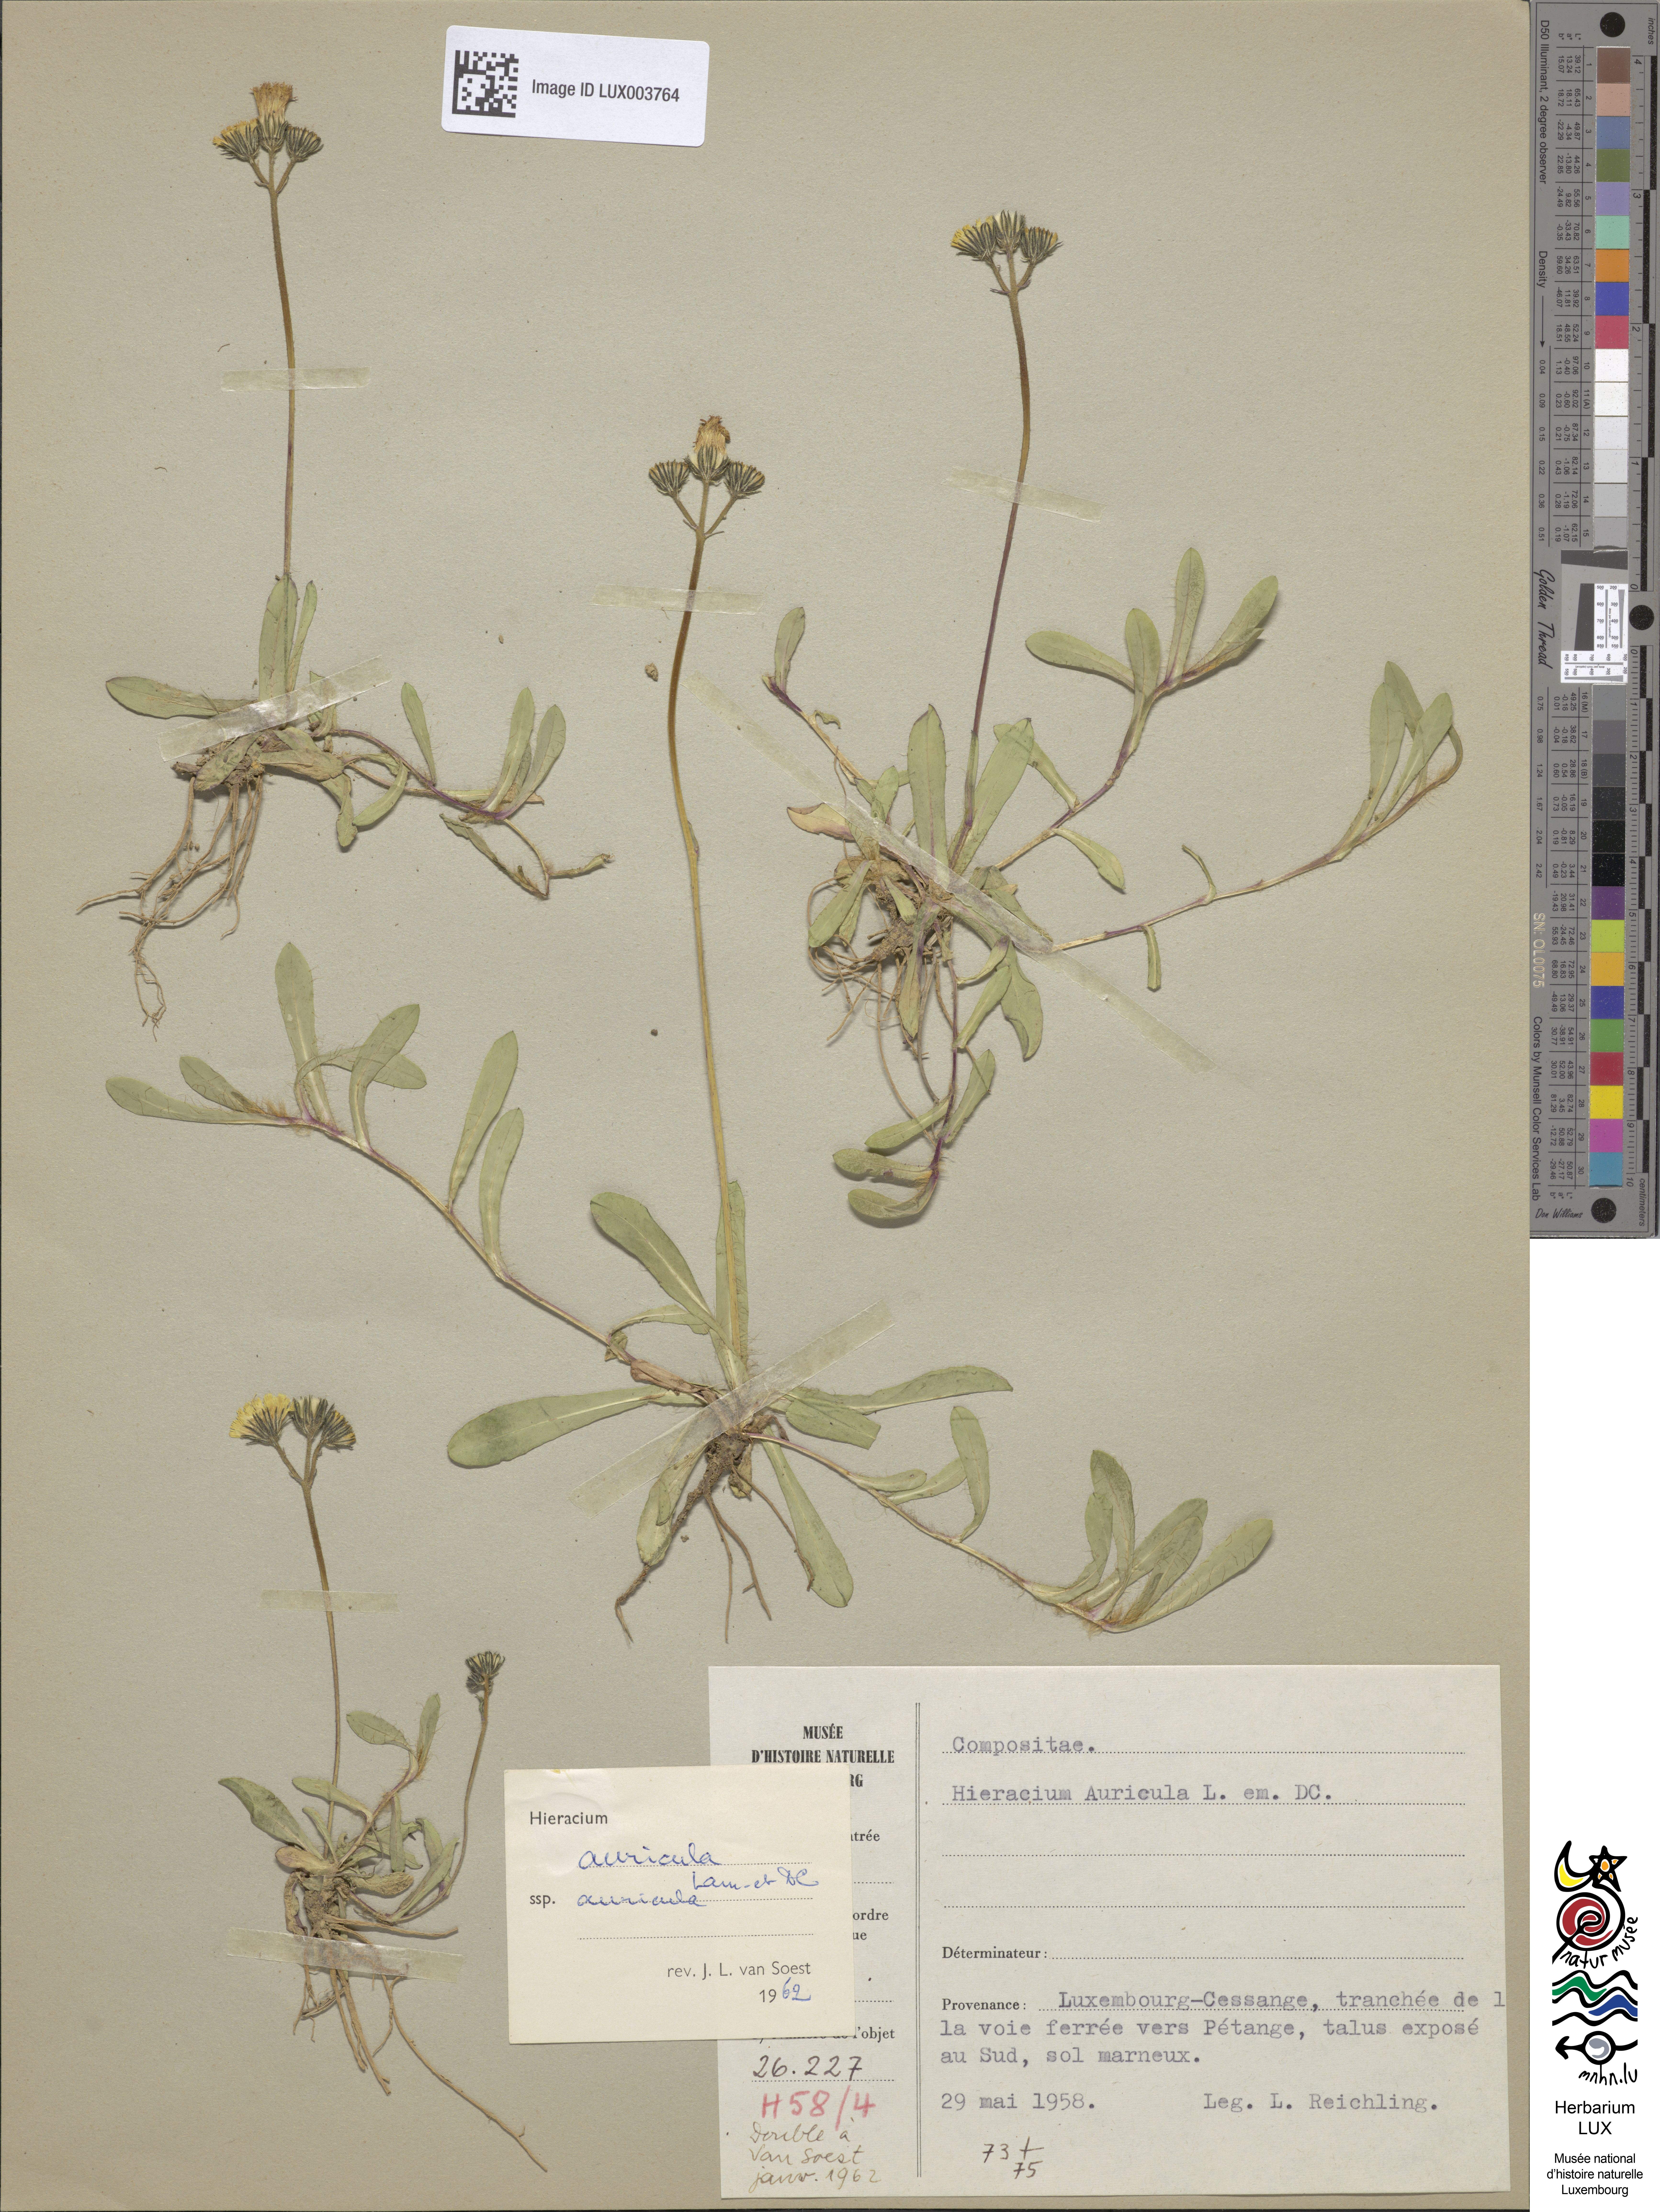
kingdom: Plantae
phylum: Tracheophyta
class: Magnoliopsida
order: Asterales
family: Asteraceae
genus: Hieracium
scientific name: Hieracium auricula
